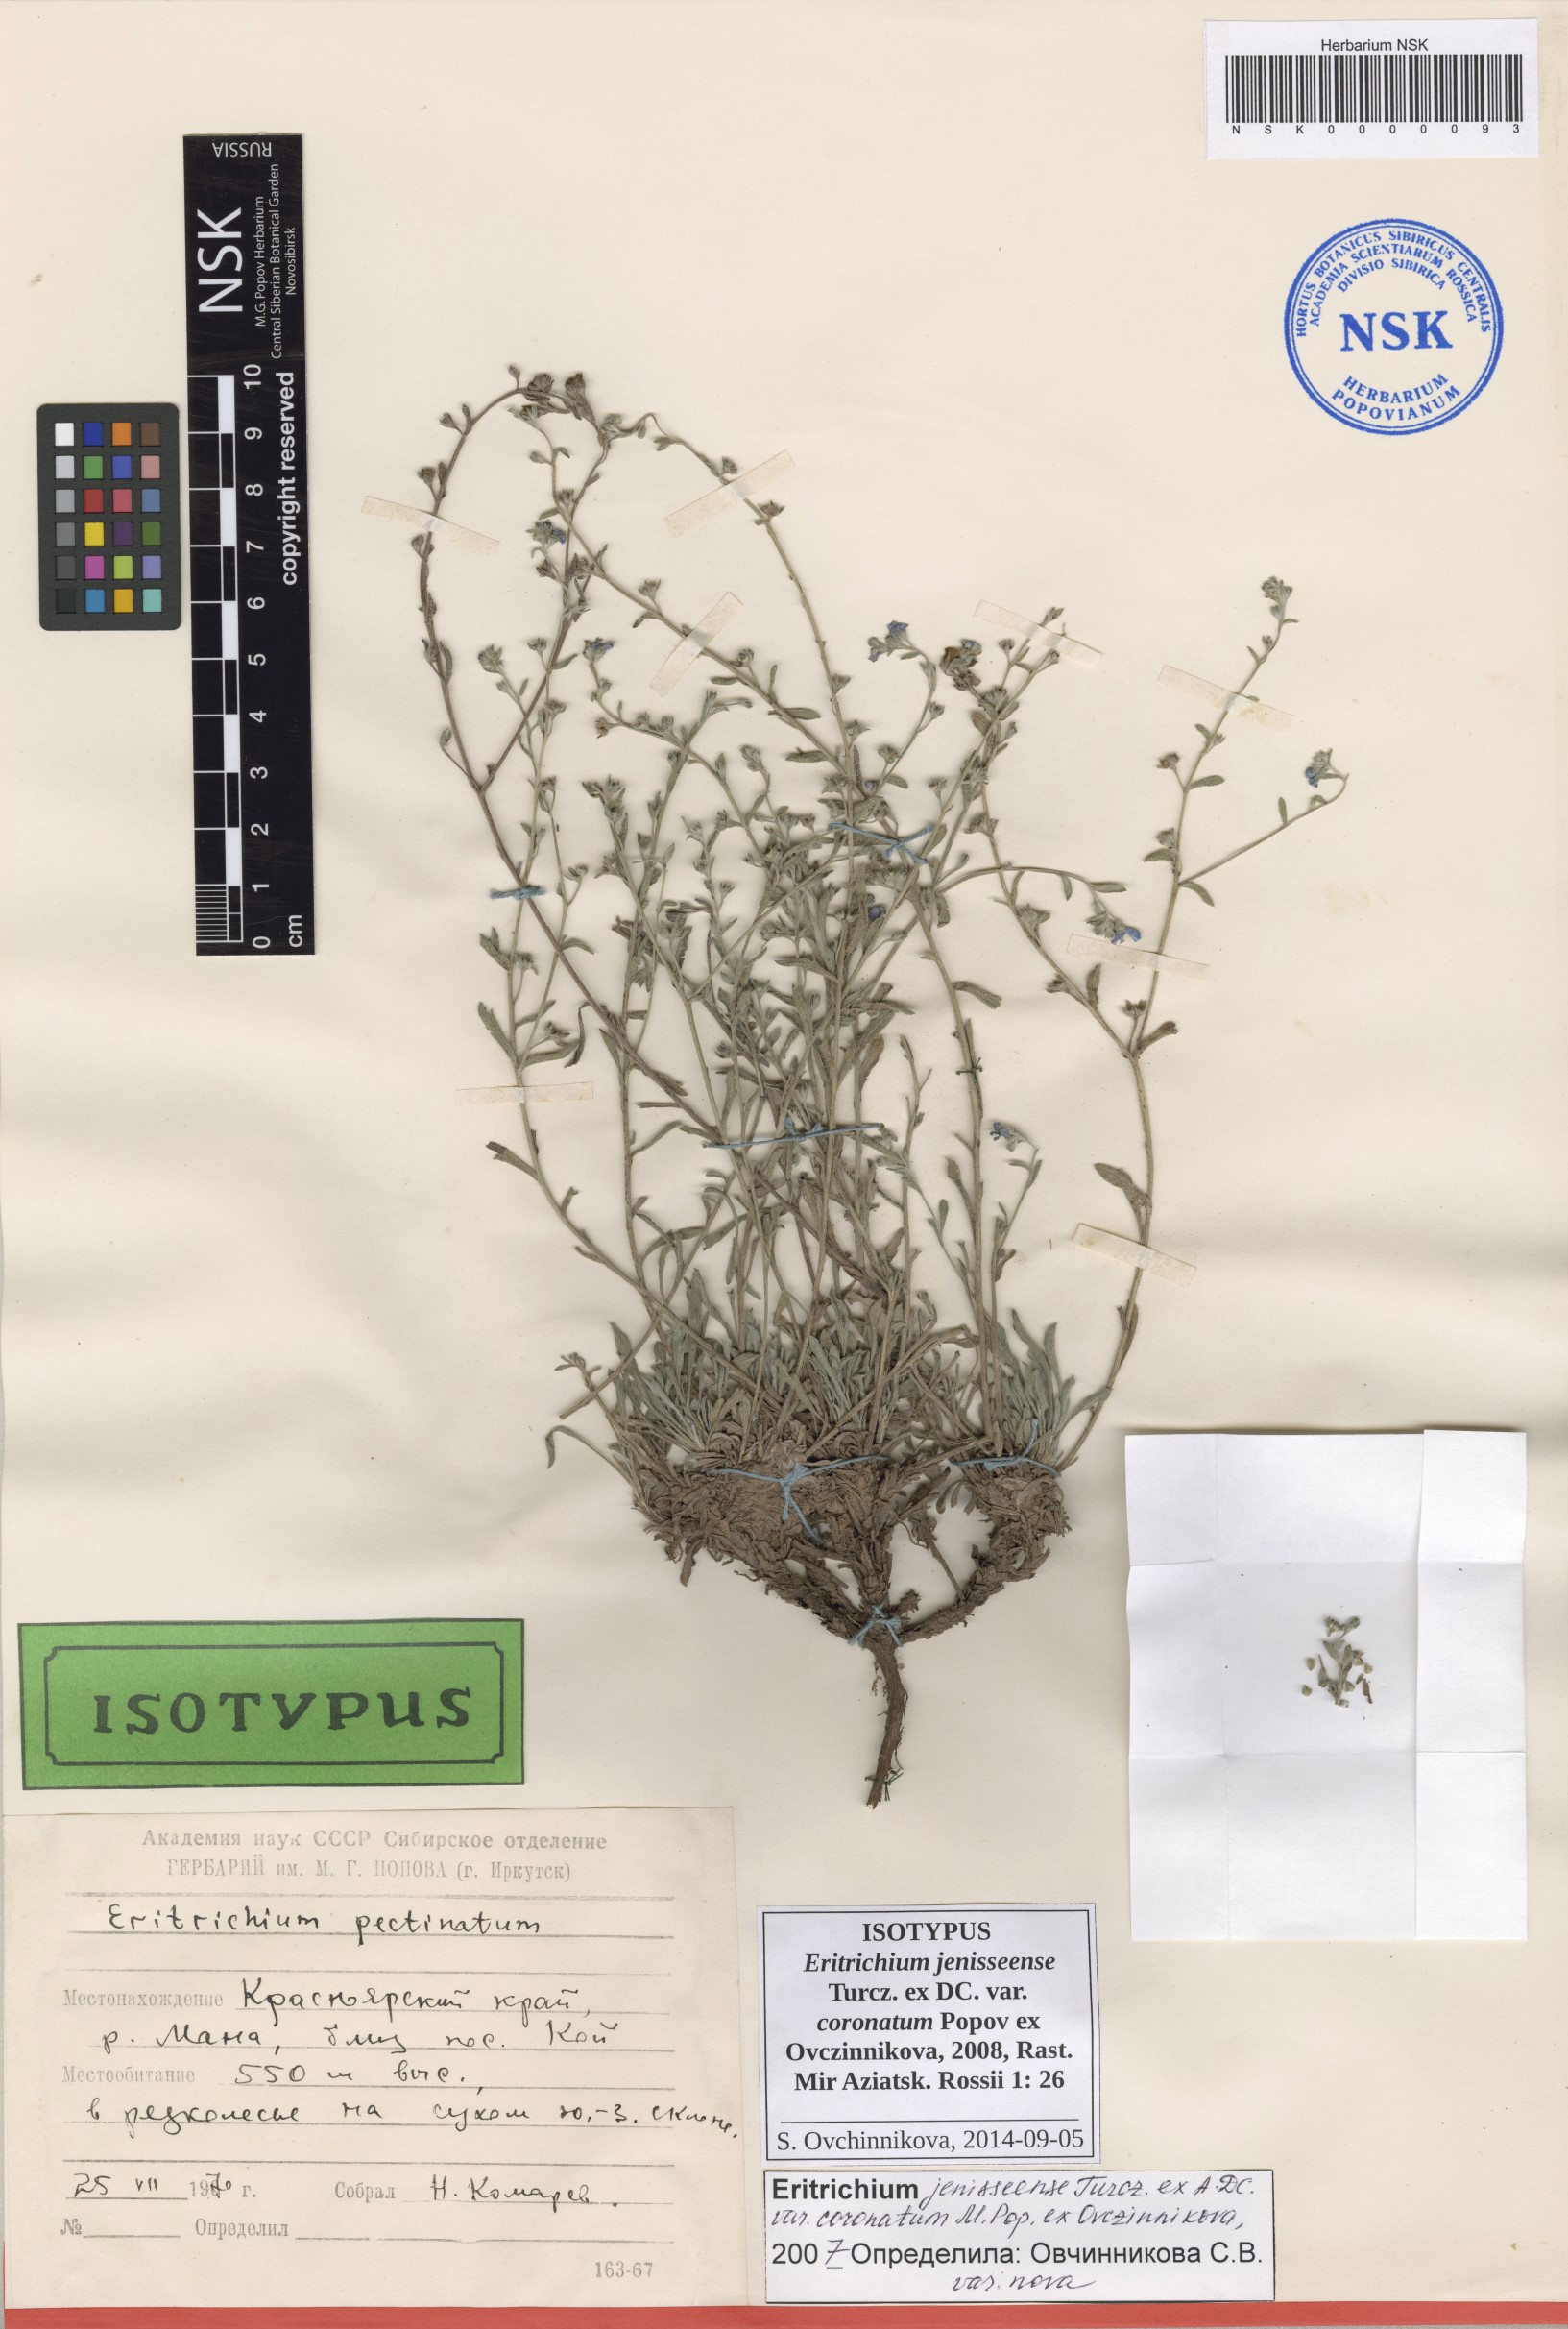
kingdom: Plantae
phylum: Tracheophyta
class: Magnoliopsida
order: Boraginales
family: Boraginaceae
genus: Eritrichium
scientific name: Eritrichium jenisseense
